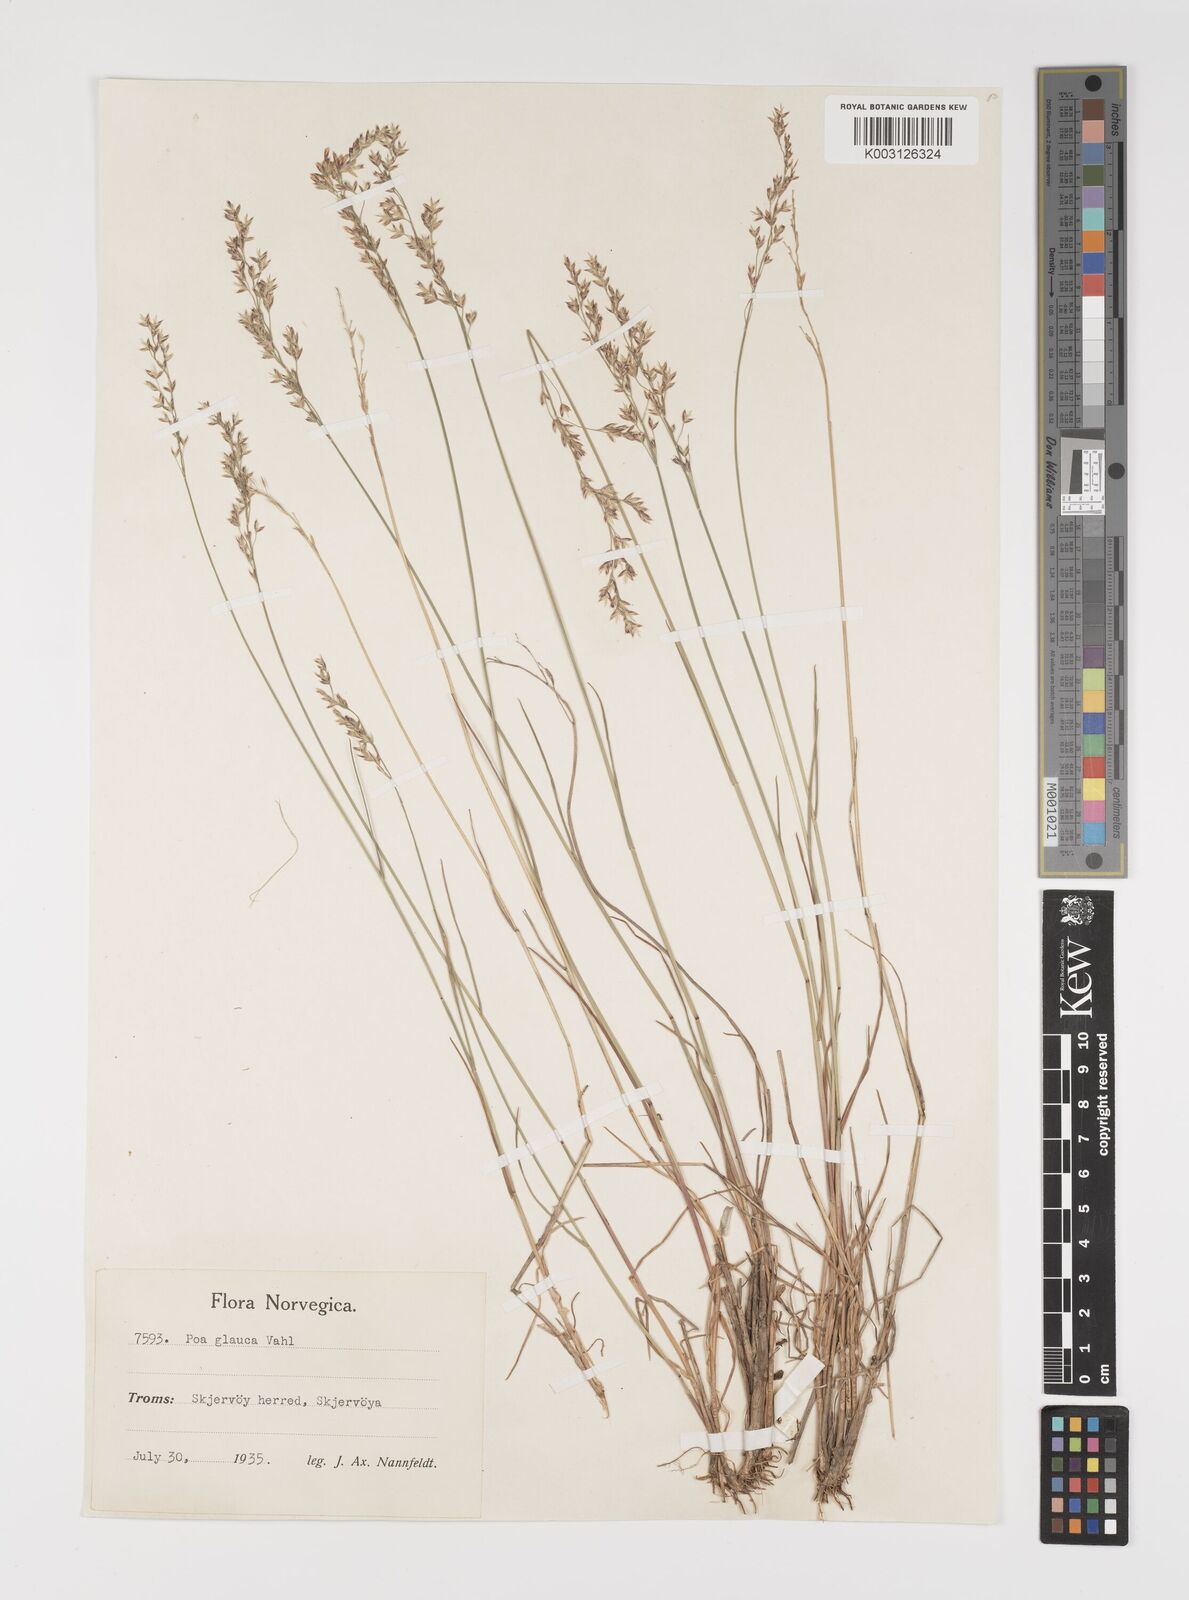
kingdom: Plantae
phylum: Tracheophyta
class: Liliopsida
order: Poales
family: Poaceae
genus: Poa
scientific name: Poa glauca
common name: Glaucous bluegrass
